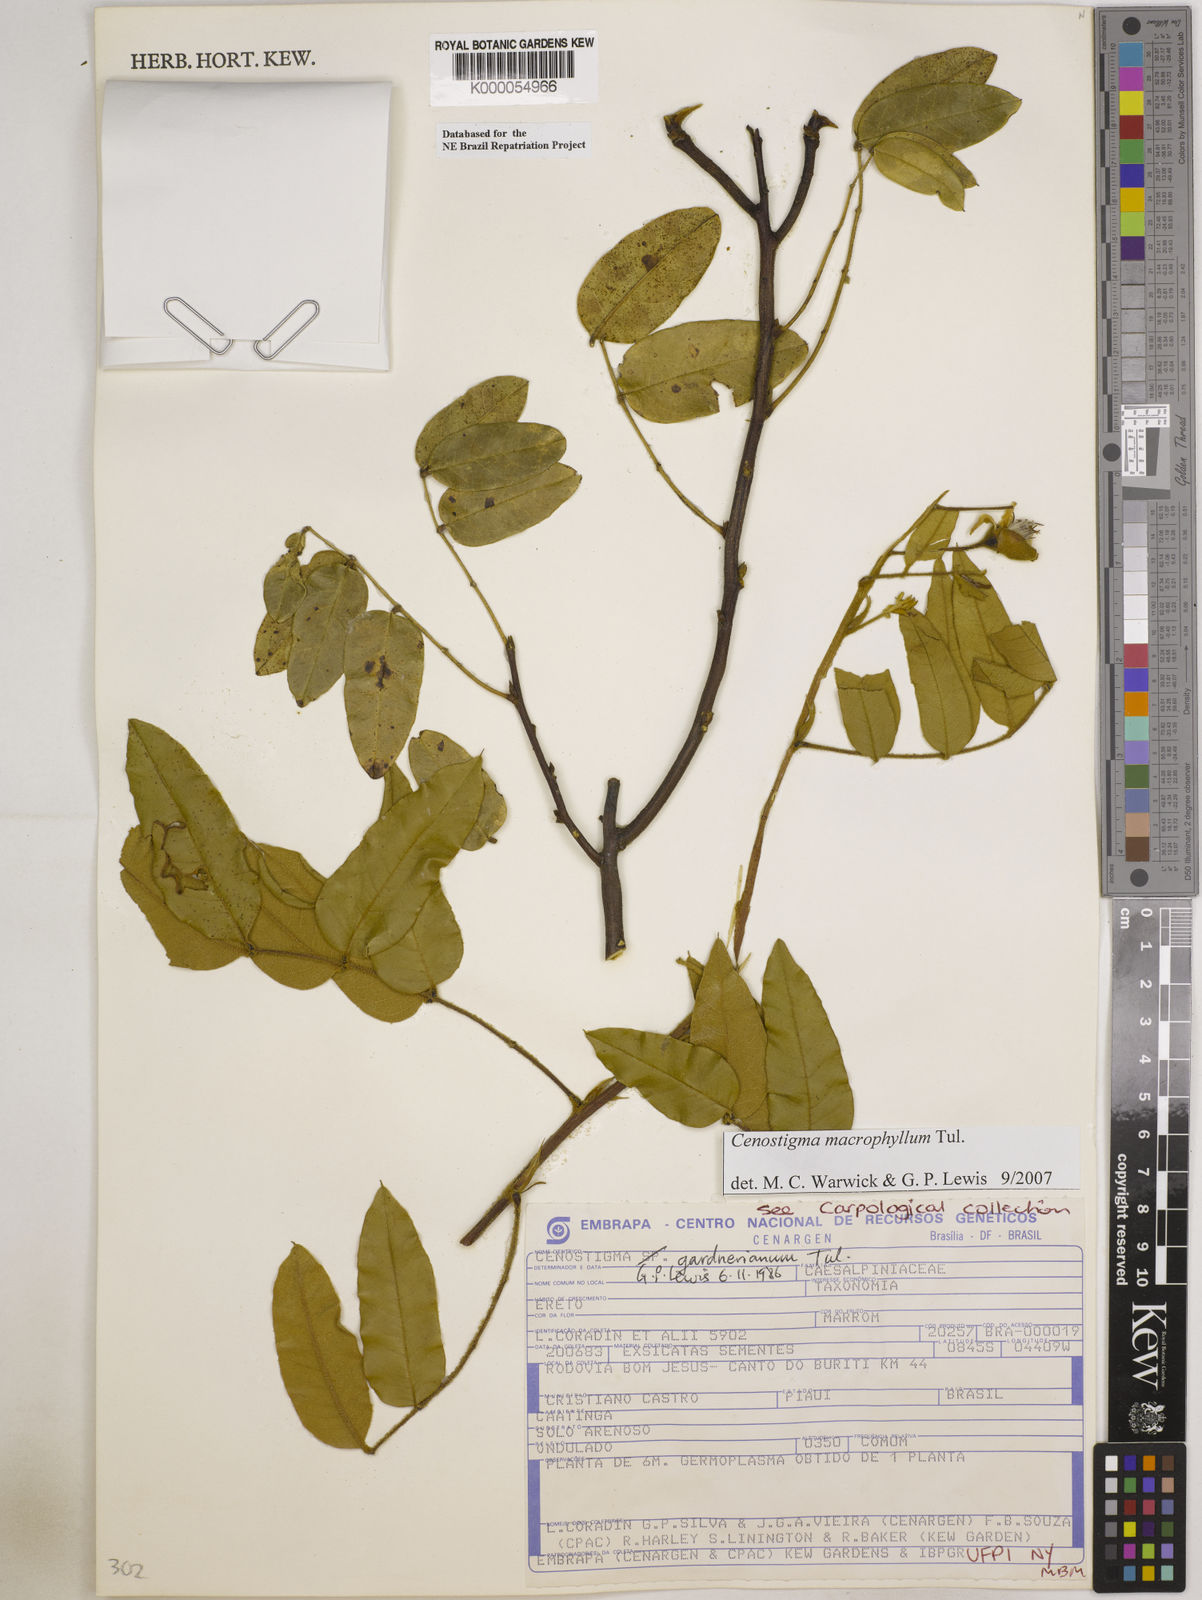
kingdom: Plantae
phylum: Tracheophyta
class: Magnoliopsida
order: Fabales
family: Fabaceae
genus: Cenostigma
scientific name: Cenostigma macrophyllum
